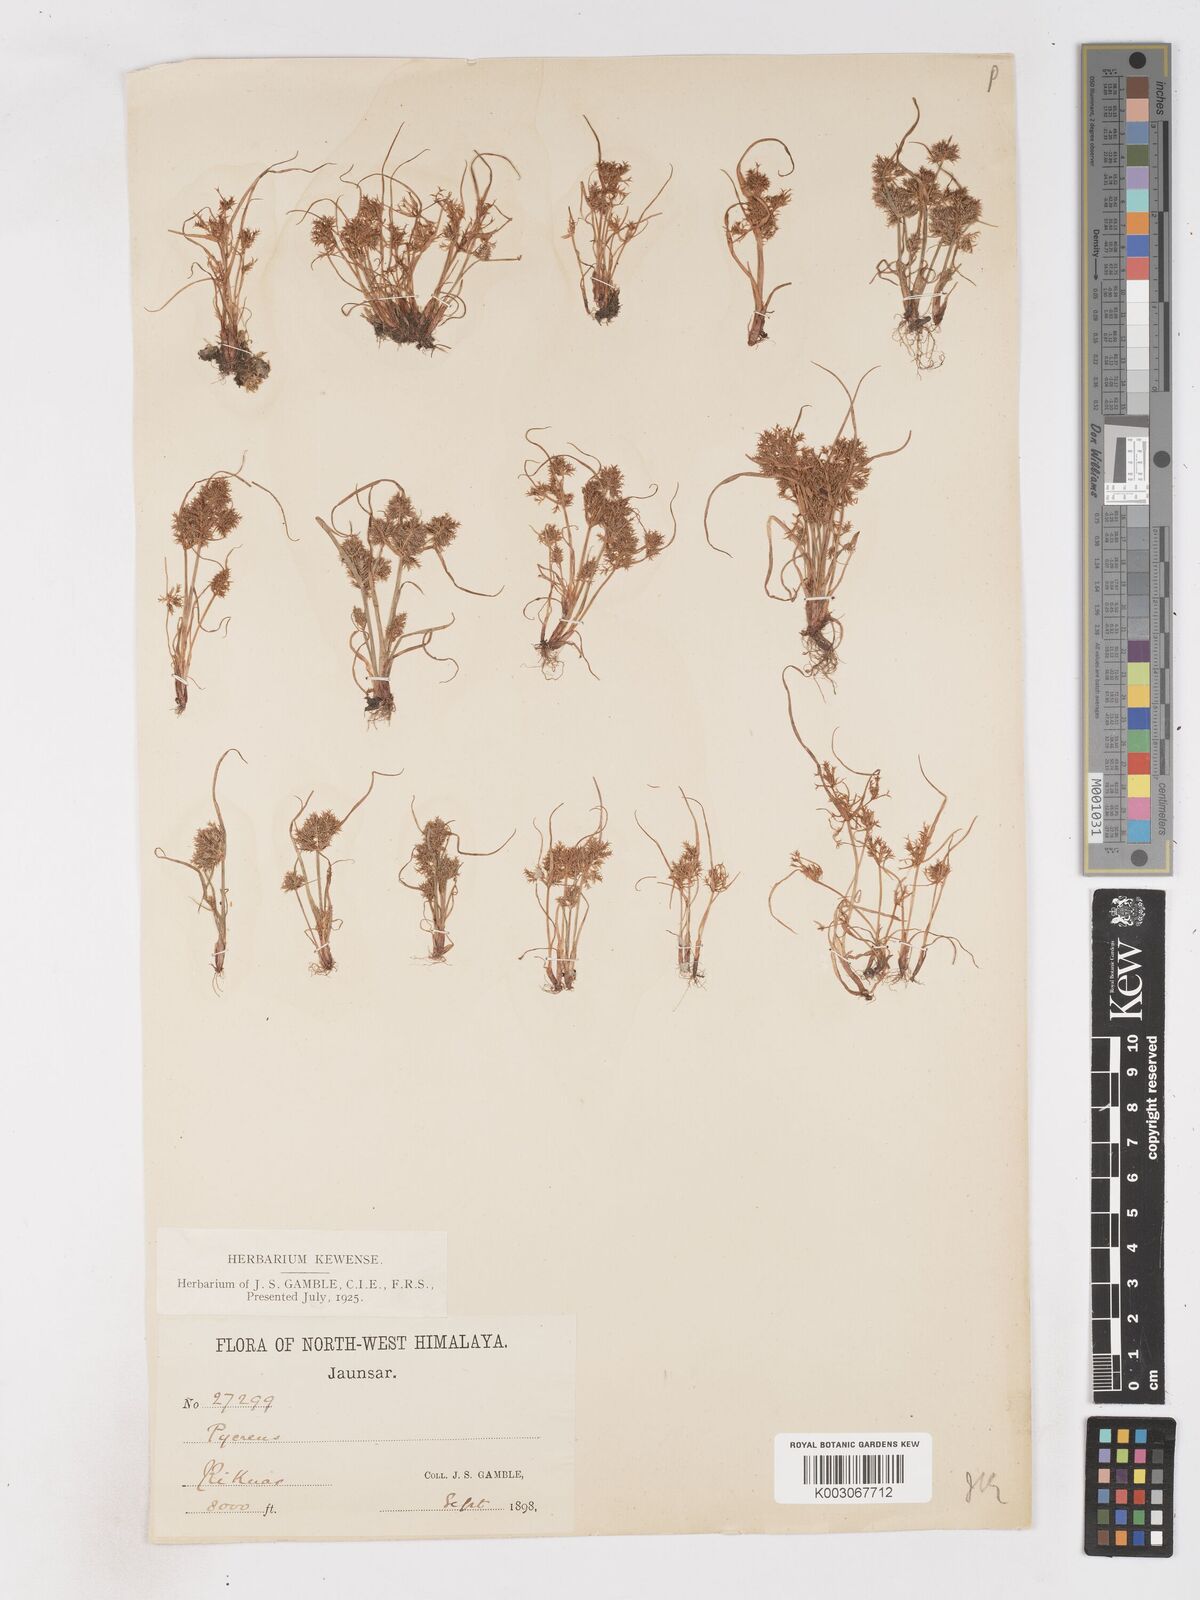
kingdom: Plantae
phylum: Tracheophyta
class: Liliopsida
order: Poales
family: Cyperaceae
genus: Cyperus
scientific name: Cyperus squarrosus
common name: Awned cyperus
